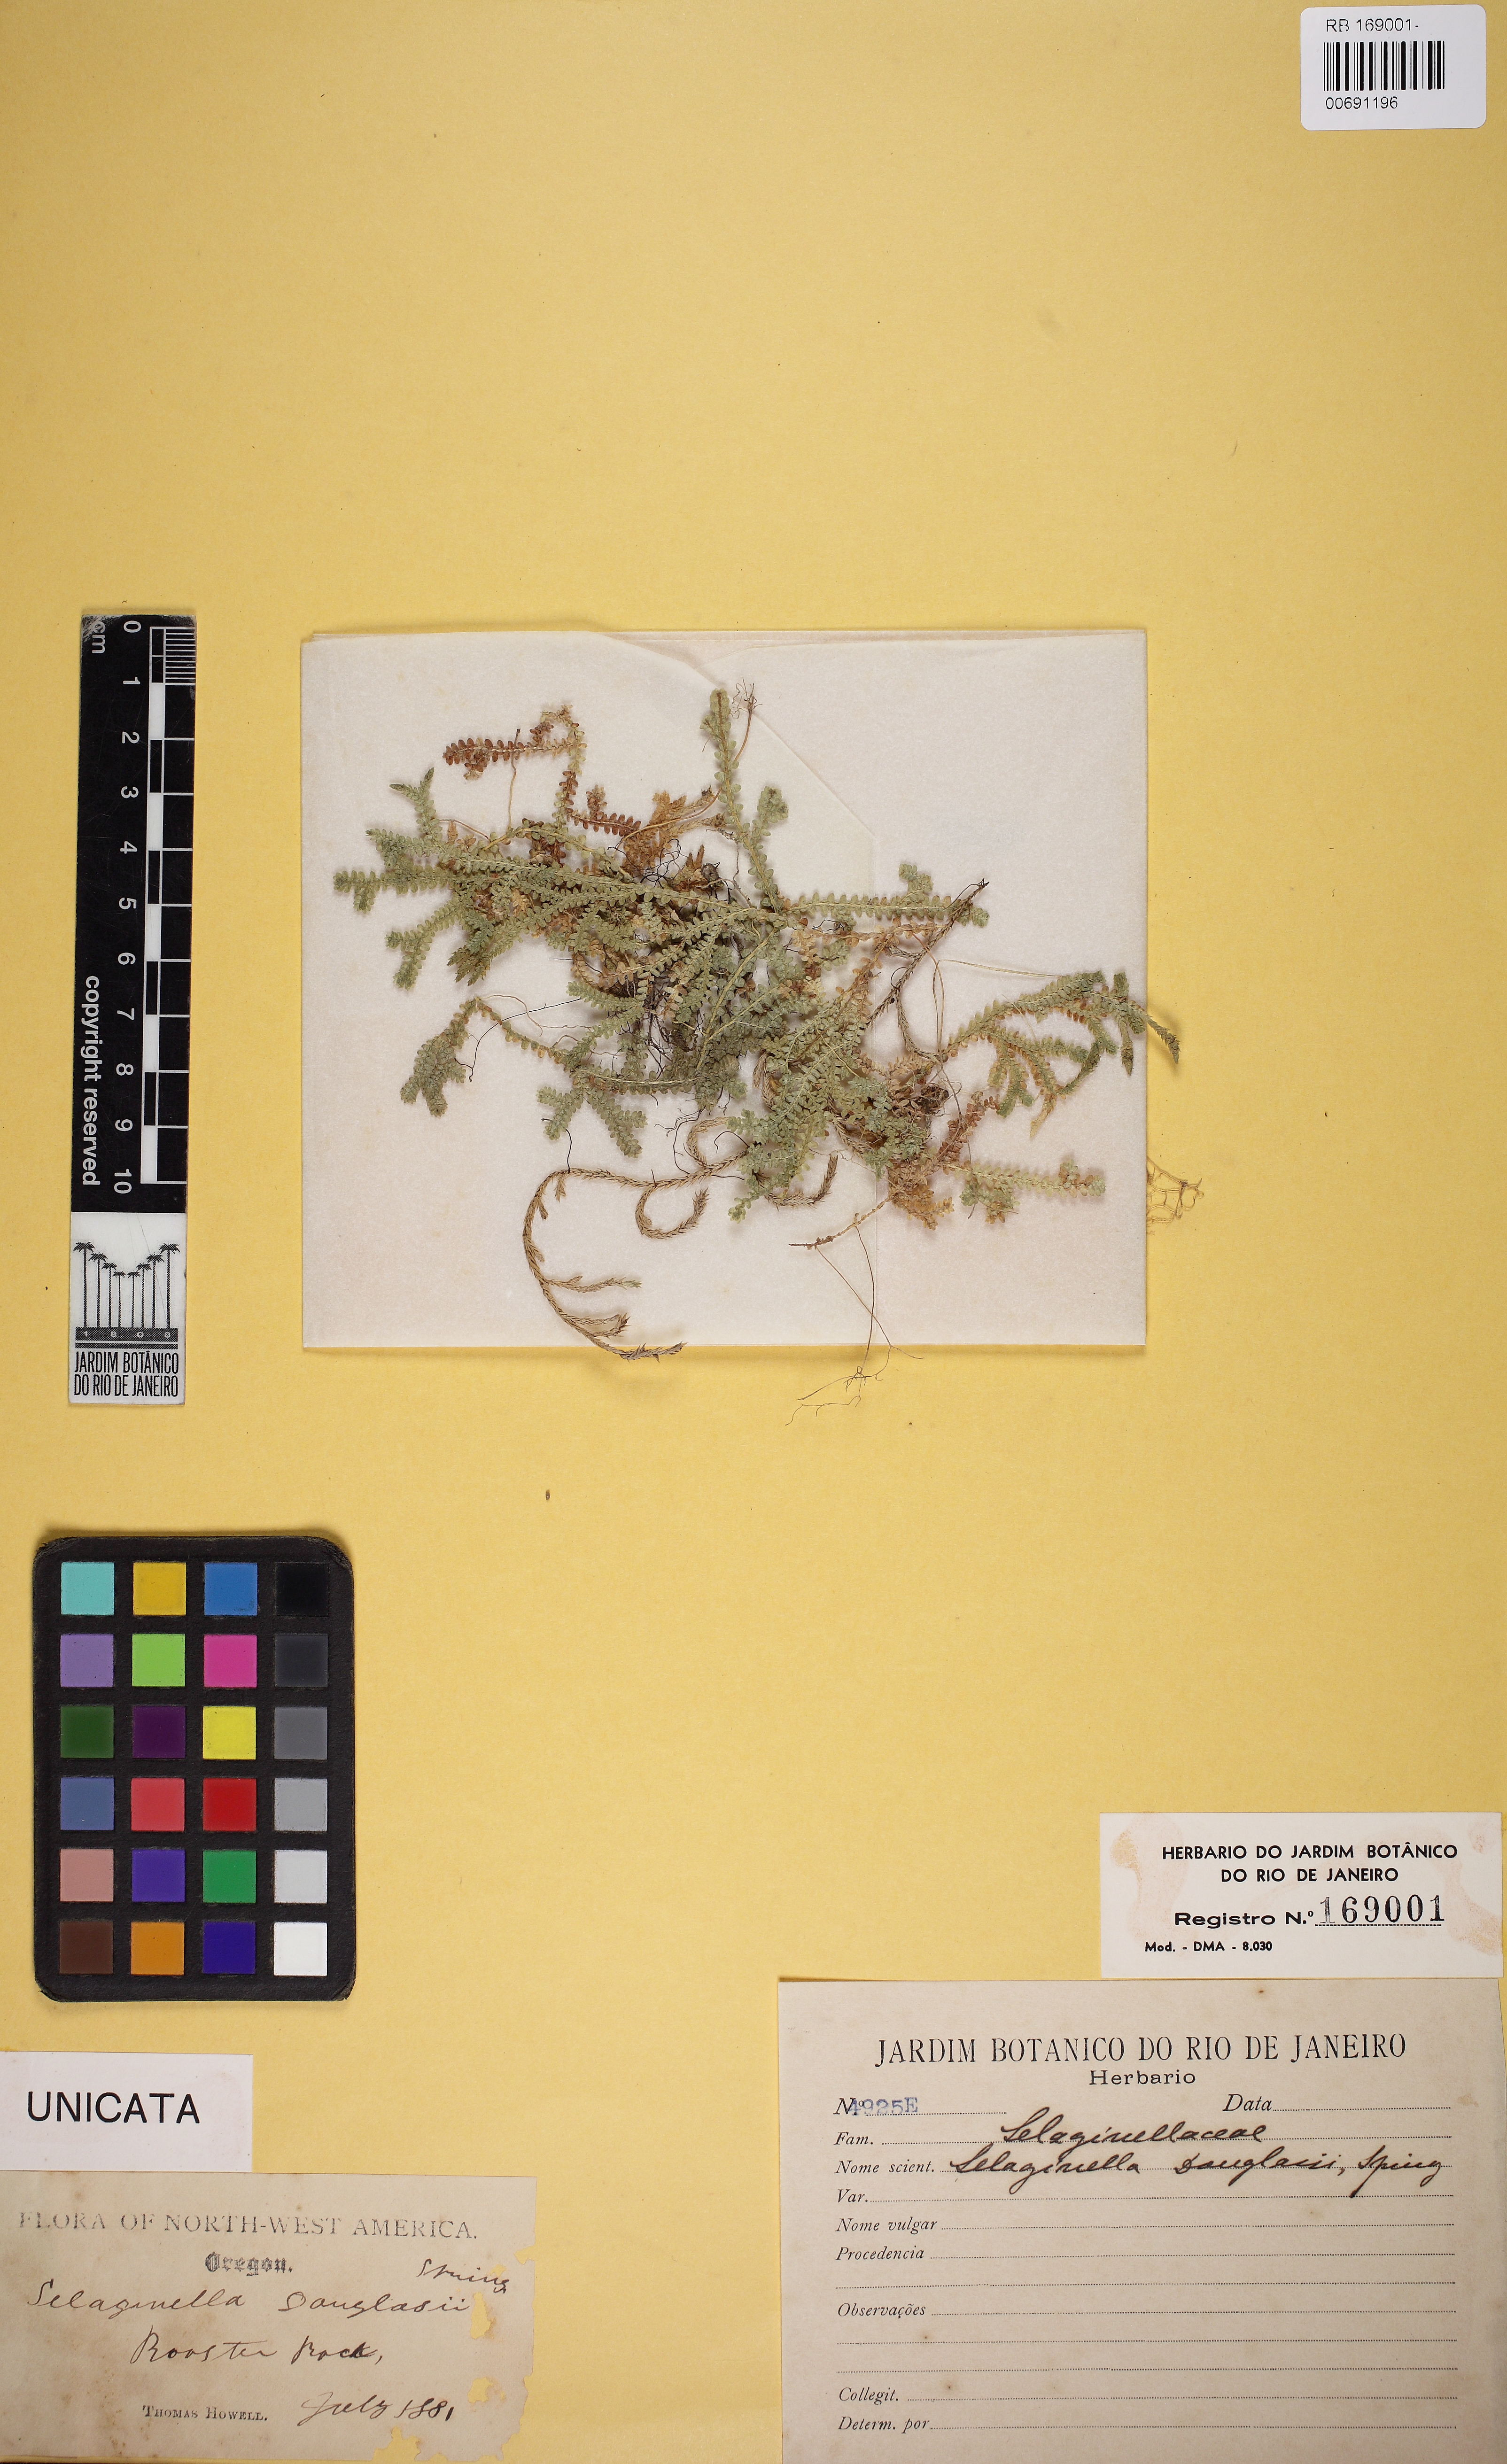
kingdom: Plantae
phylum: Tracheophyta
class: Lycopodiopsida
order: Selaginellales
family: Selaginellaceae
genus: Selaginella
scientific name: Selaginella douglasii
